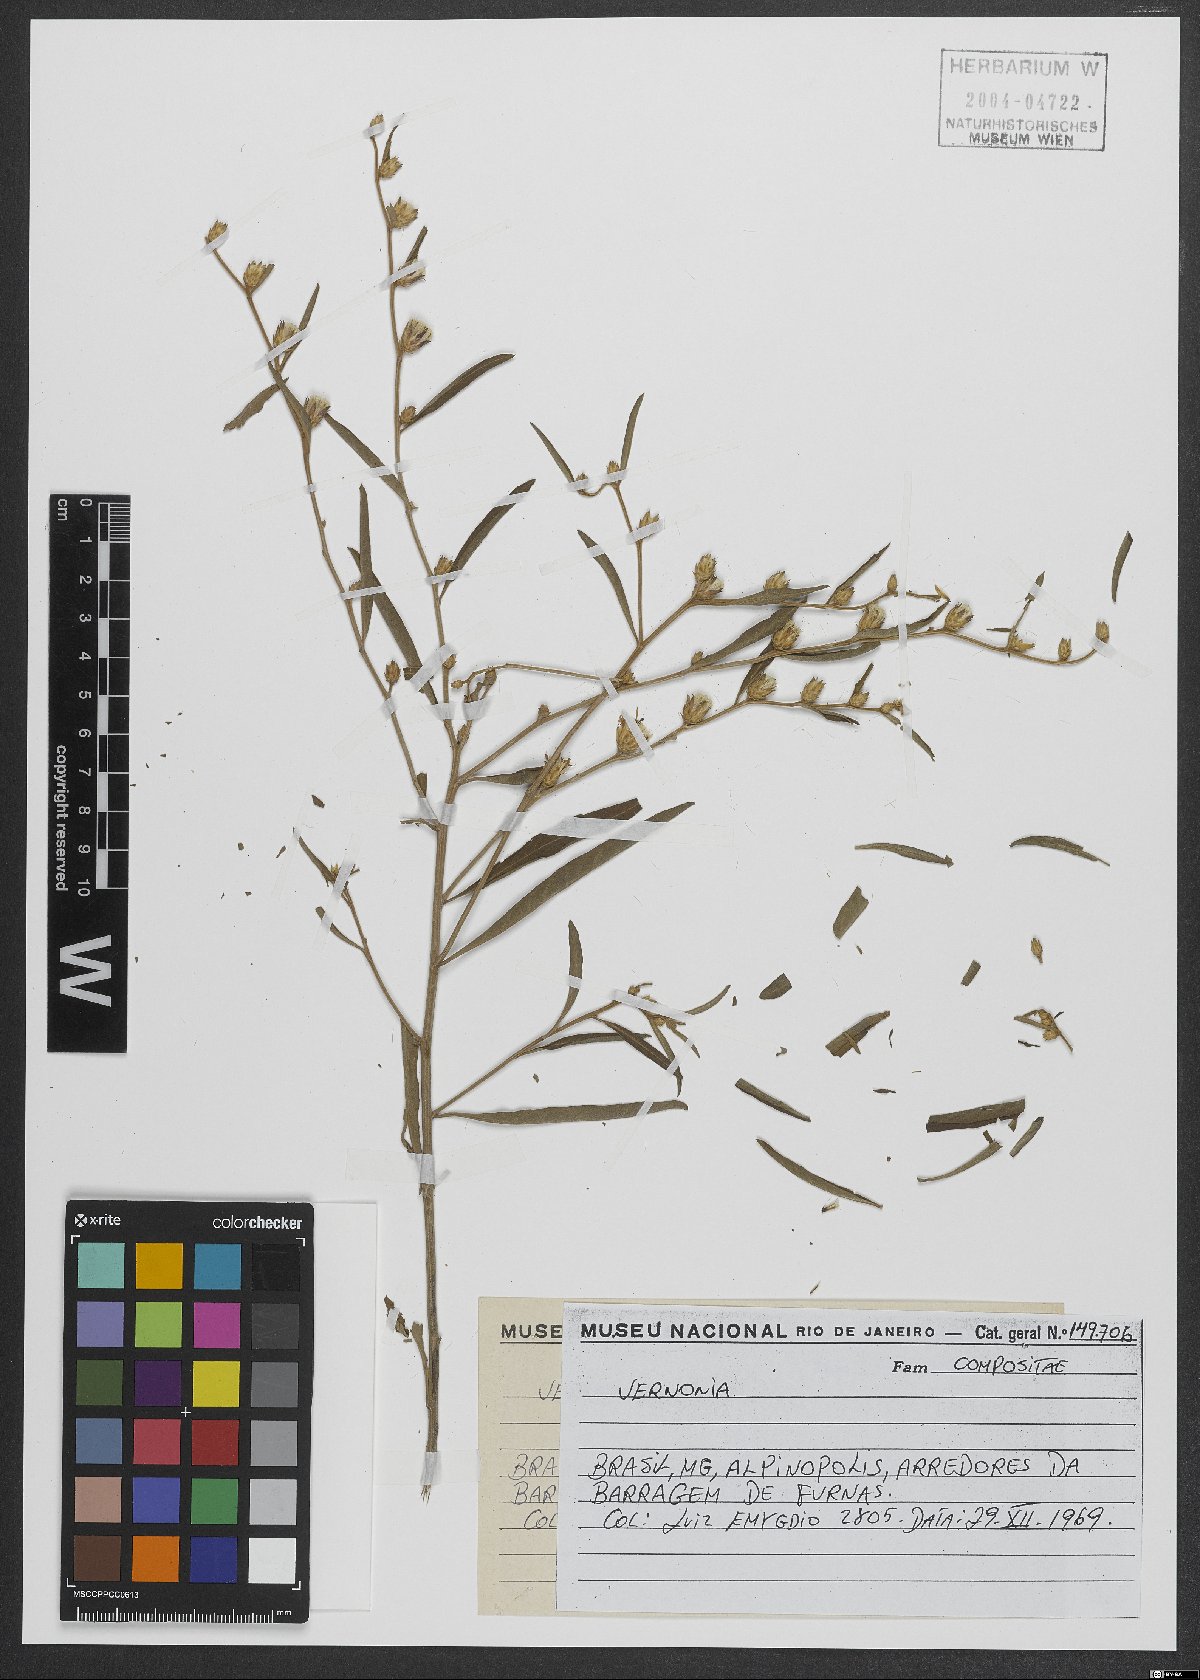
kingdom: Plantae
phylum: Tracheophyta
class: Magnoliopsida
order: Asterales
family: Asteraceae
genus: Vernonia
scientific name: Vernonia
